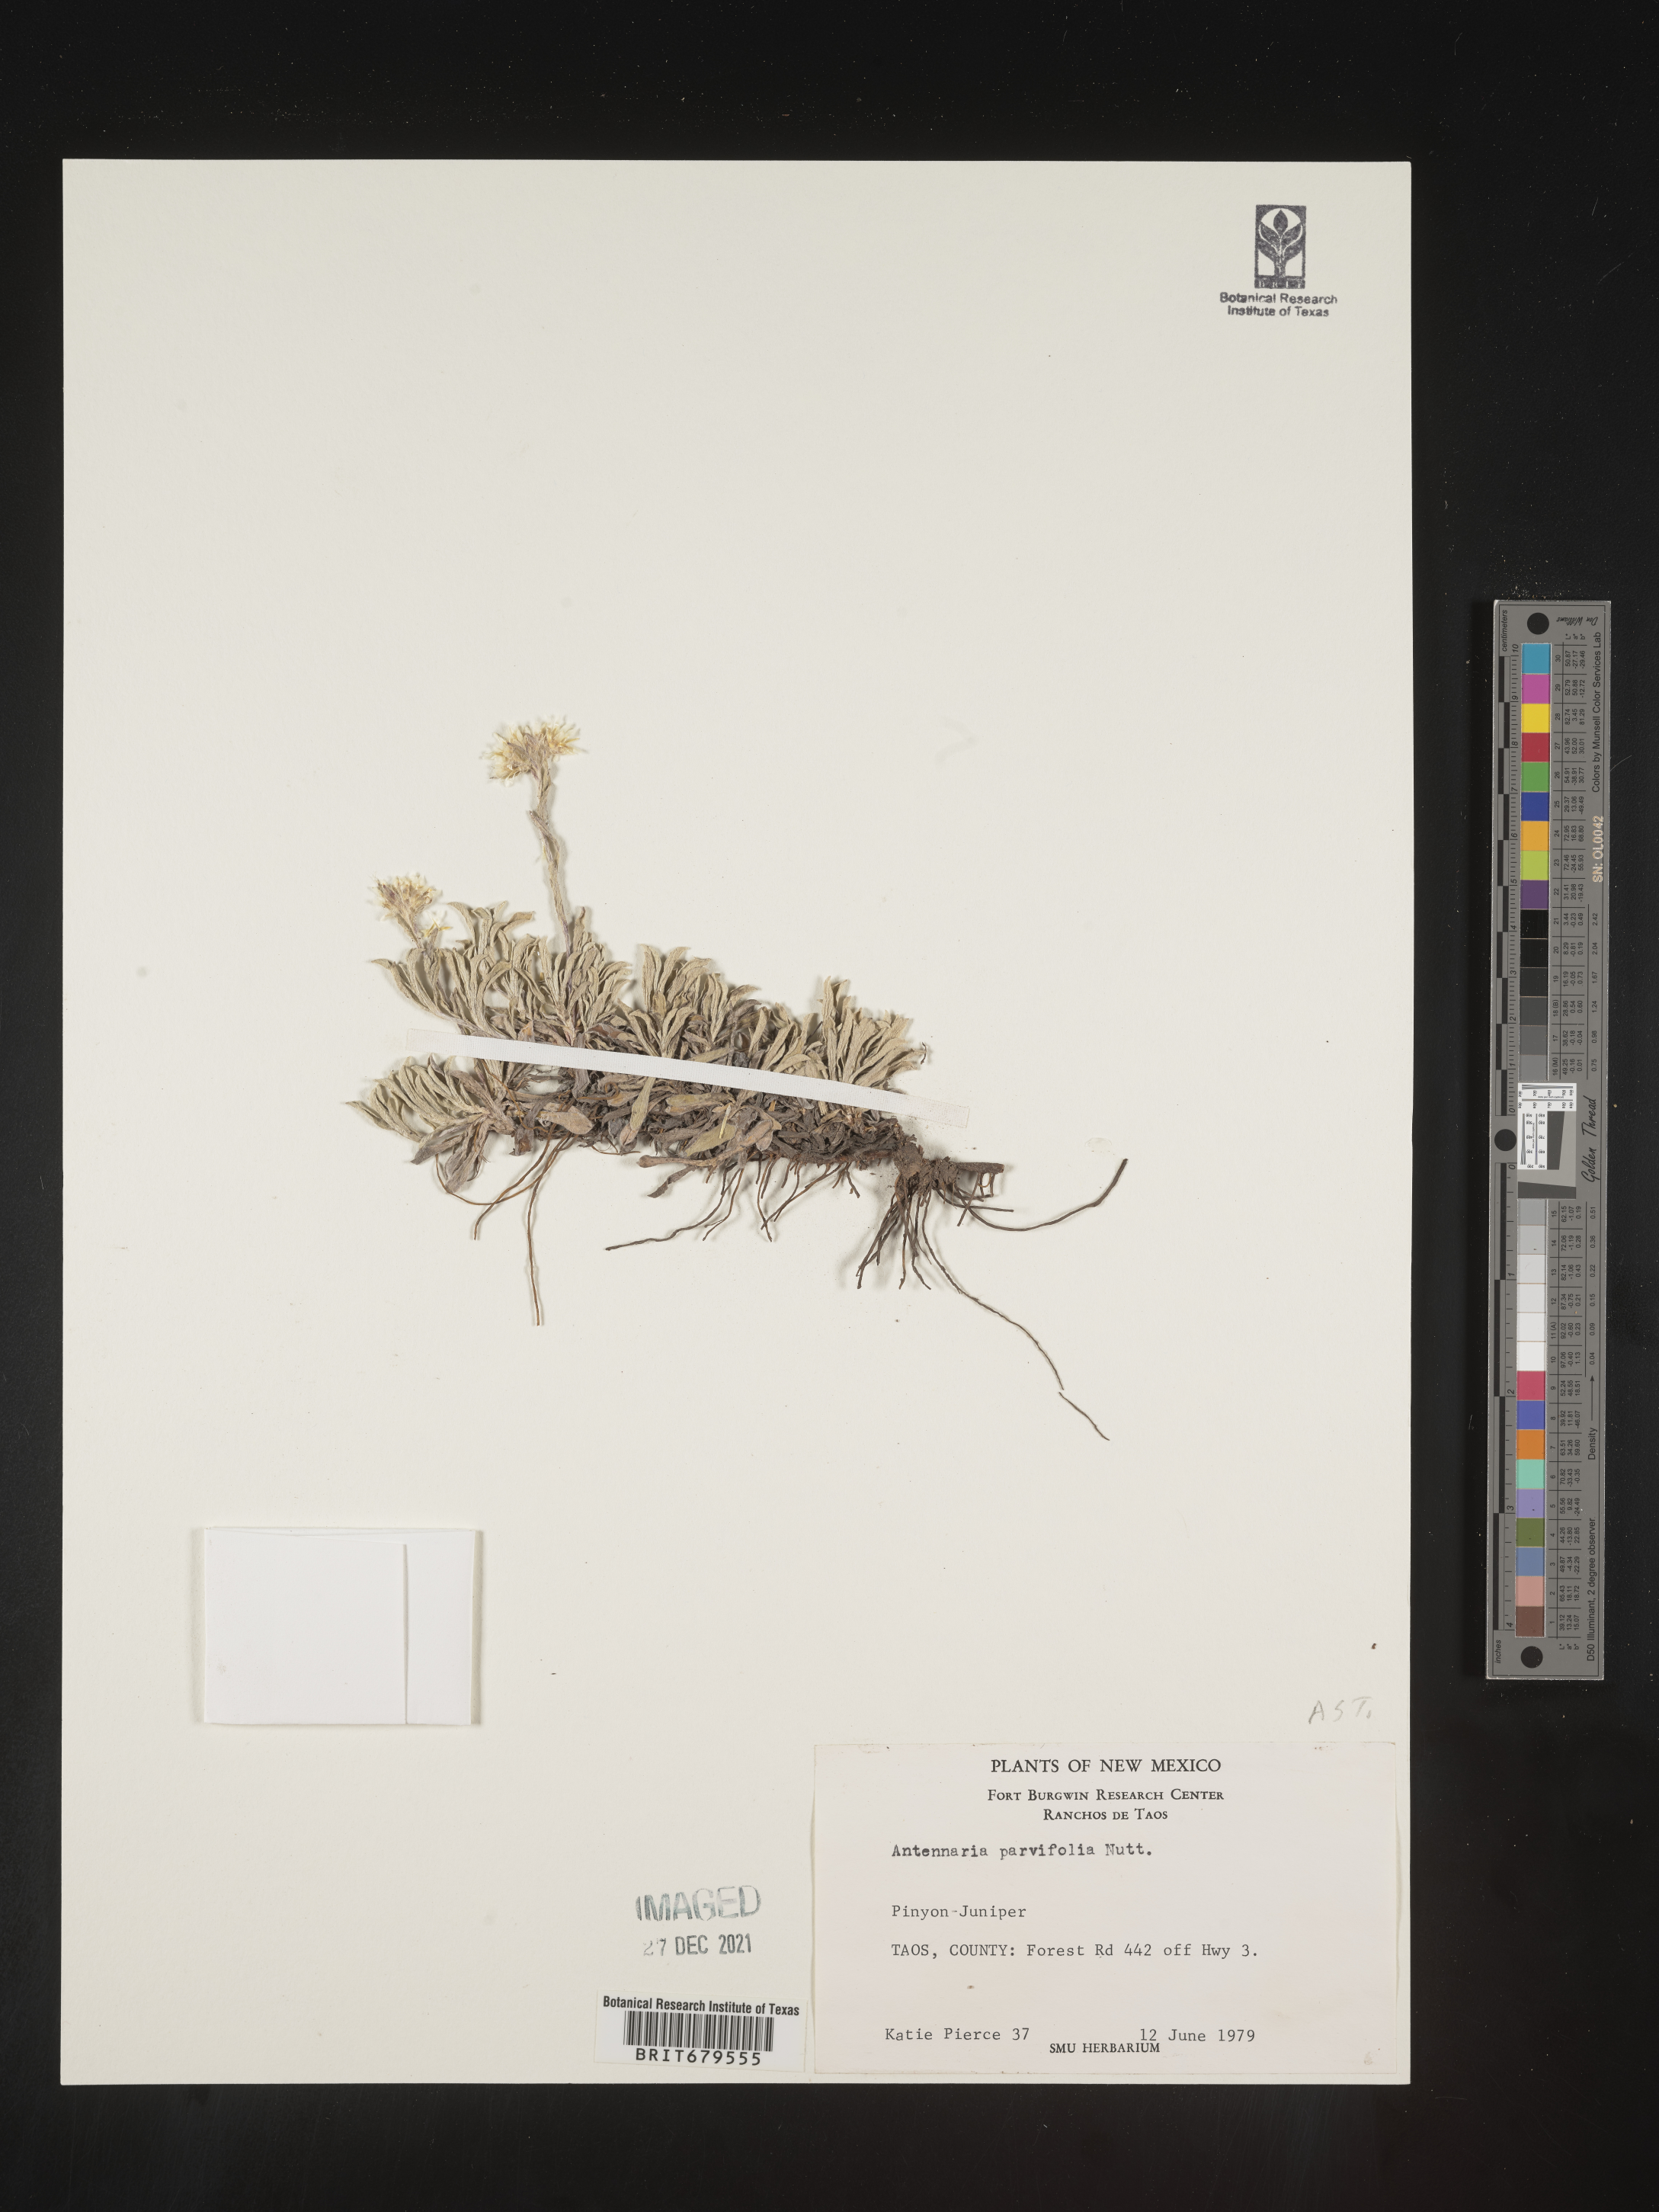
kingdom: Plantae
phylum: Tracheophyta
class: Magnoliopsida
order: Asterales
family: Asteraceae
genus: Antennaria
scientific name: Antennaria parvifolia
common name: Nuttall's pussytoes
